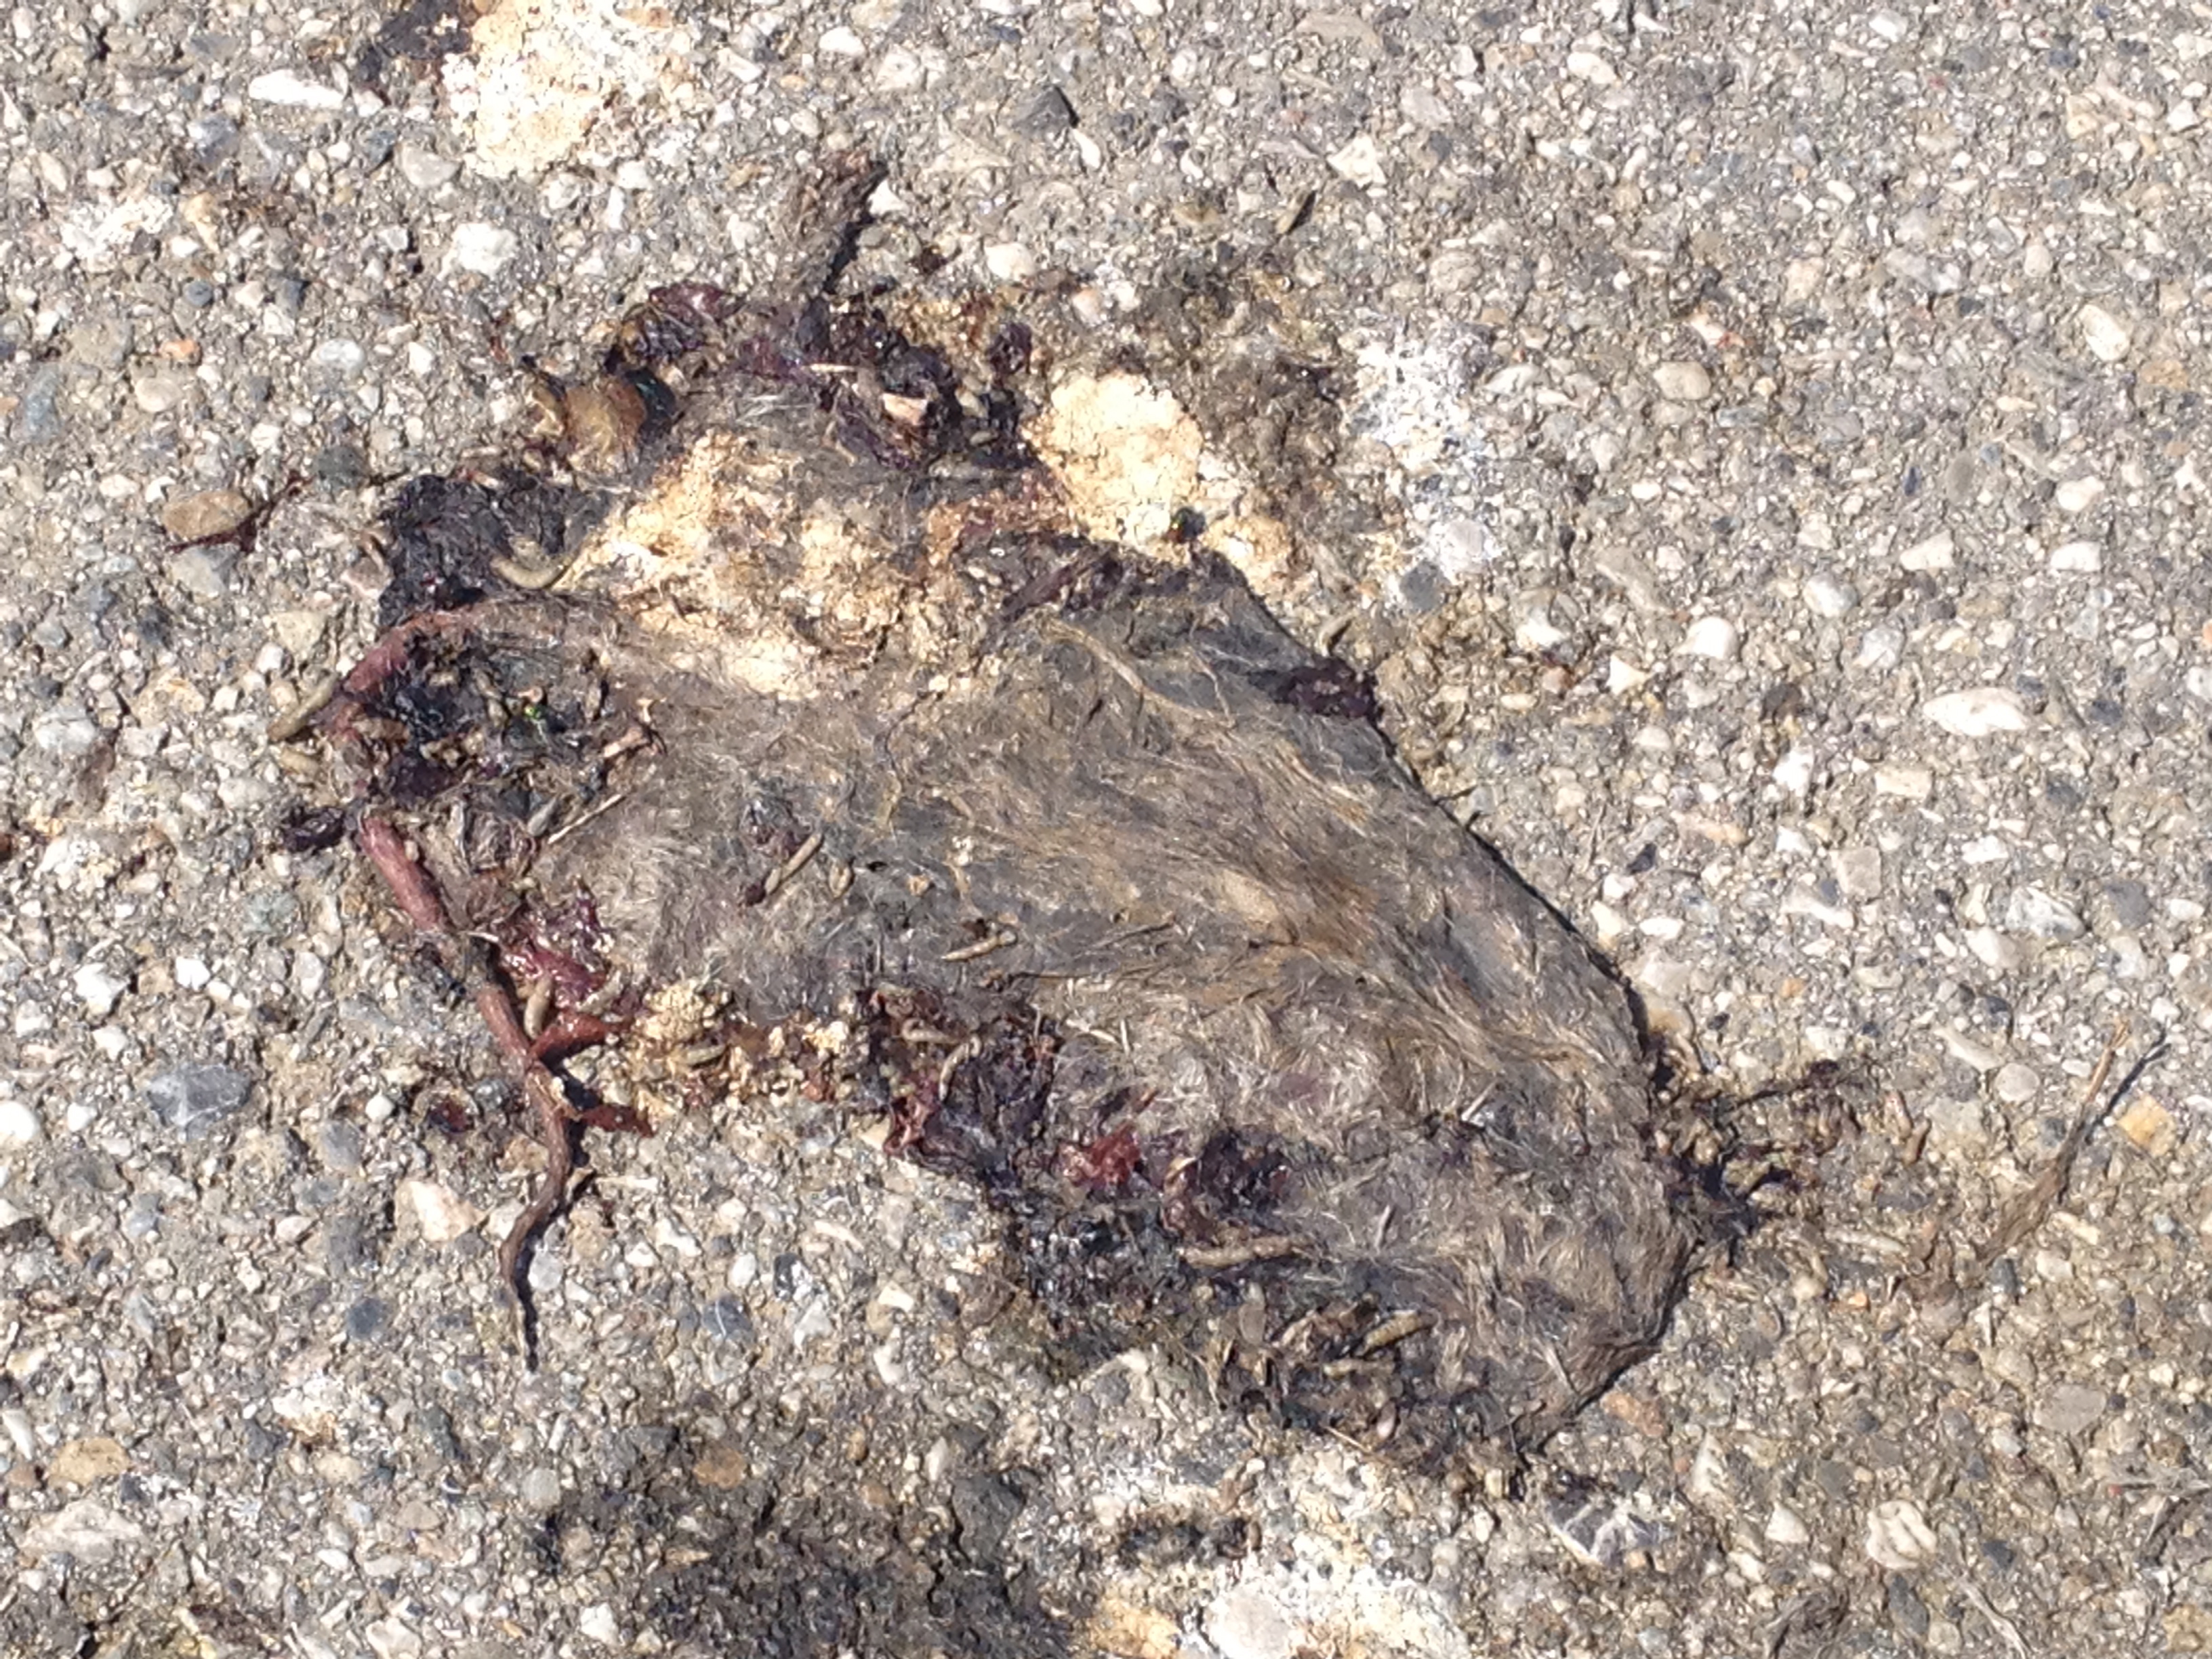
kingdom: Animalia
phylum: Chordata
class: Mammalia
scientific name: Mammalia
